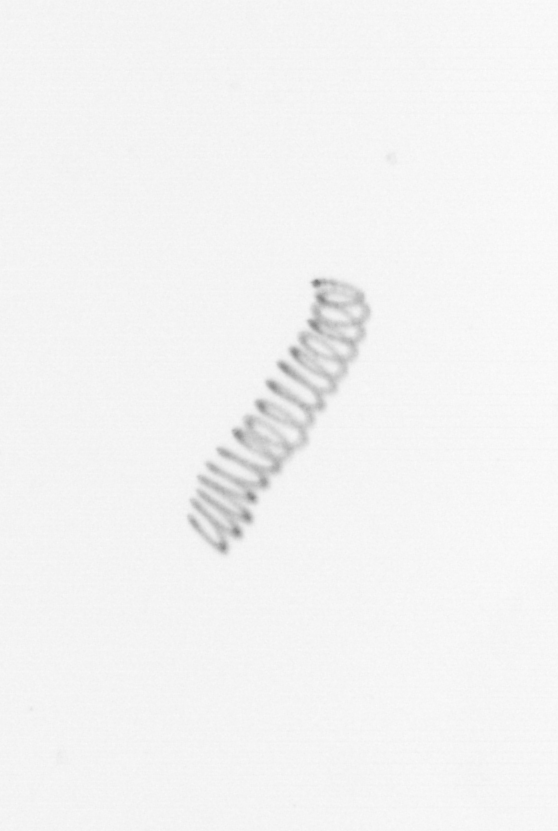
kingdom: Chromista
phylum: Ochrophyta
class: Bacillariophyceae
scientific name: Bacillariophyceae
